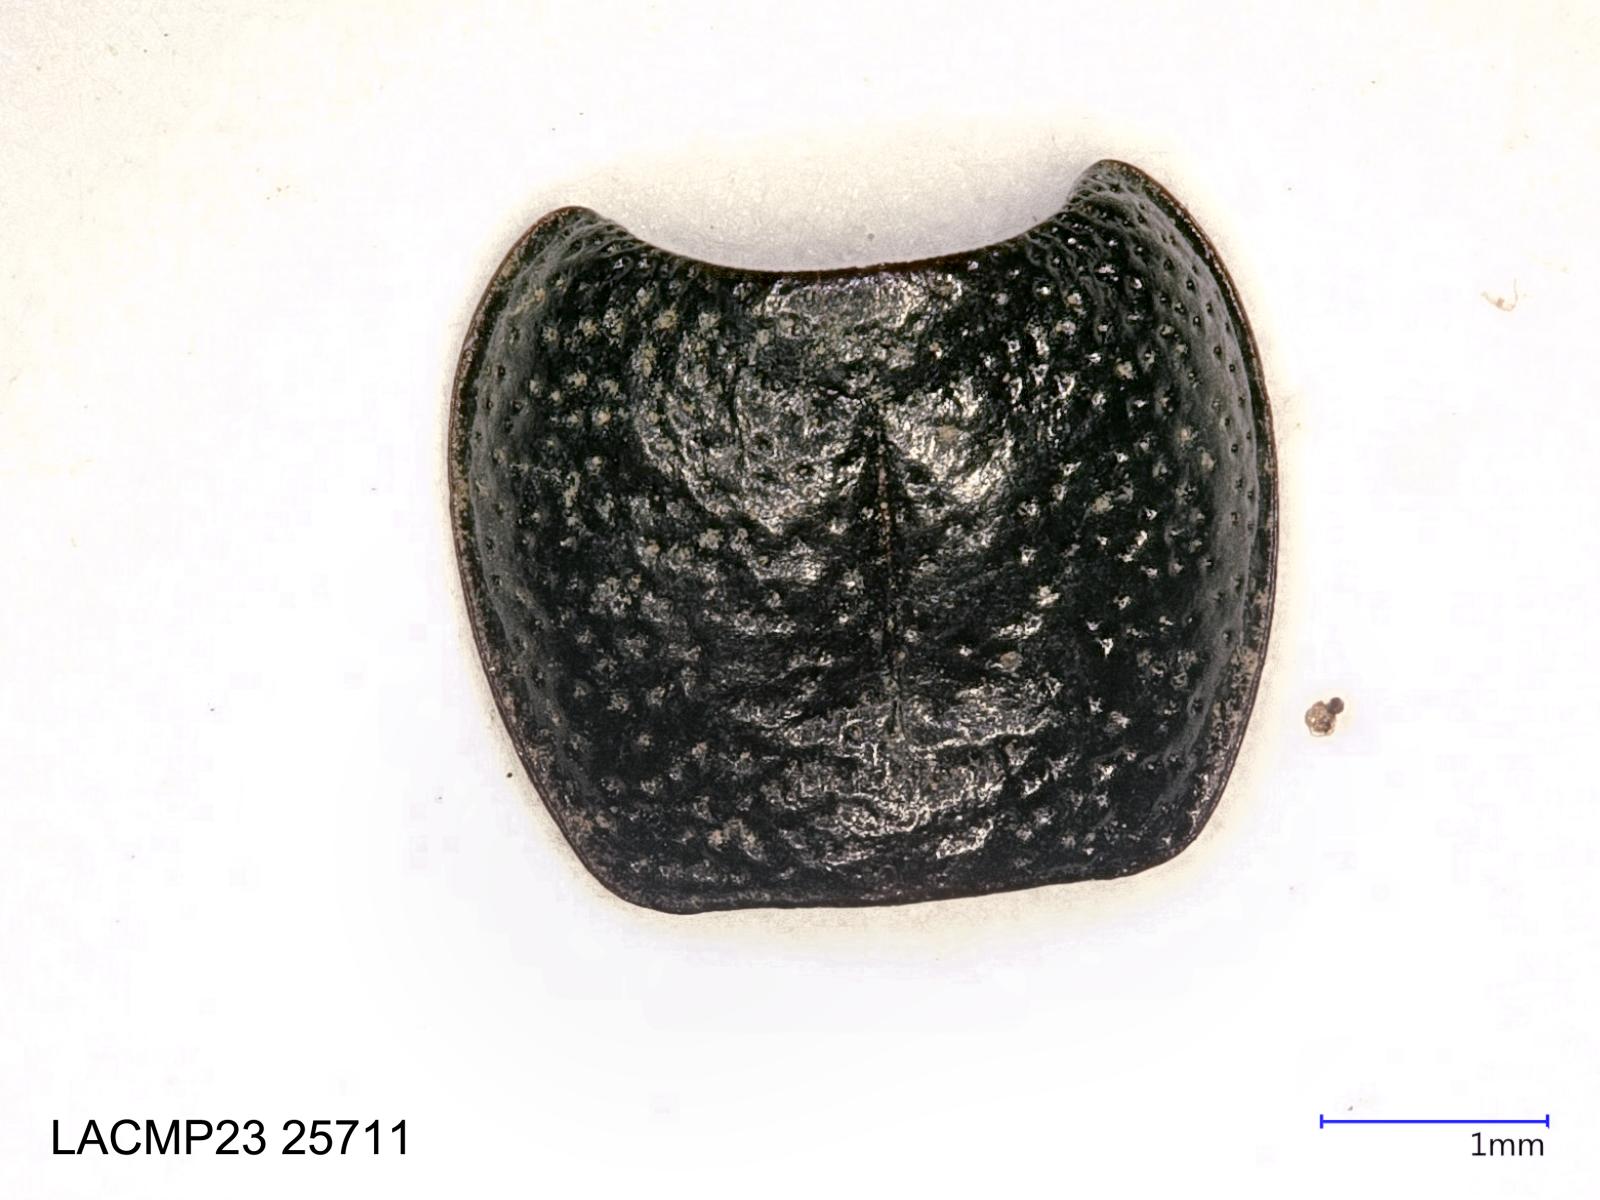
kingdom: Animalia
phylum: Arthropoda
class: Insecta
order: Coleoptera
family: Carabidae
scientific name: Carabidae
